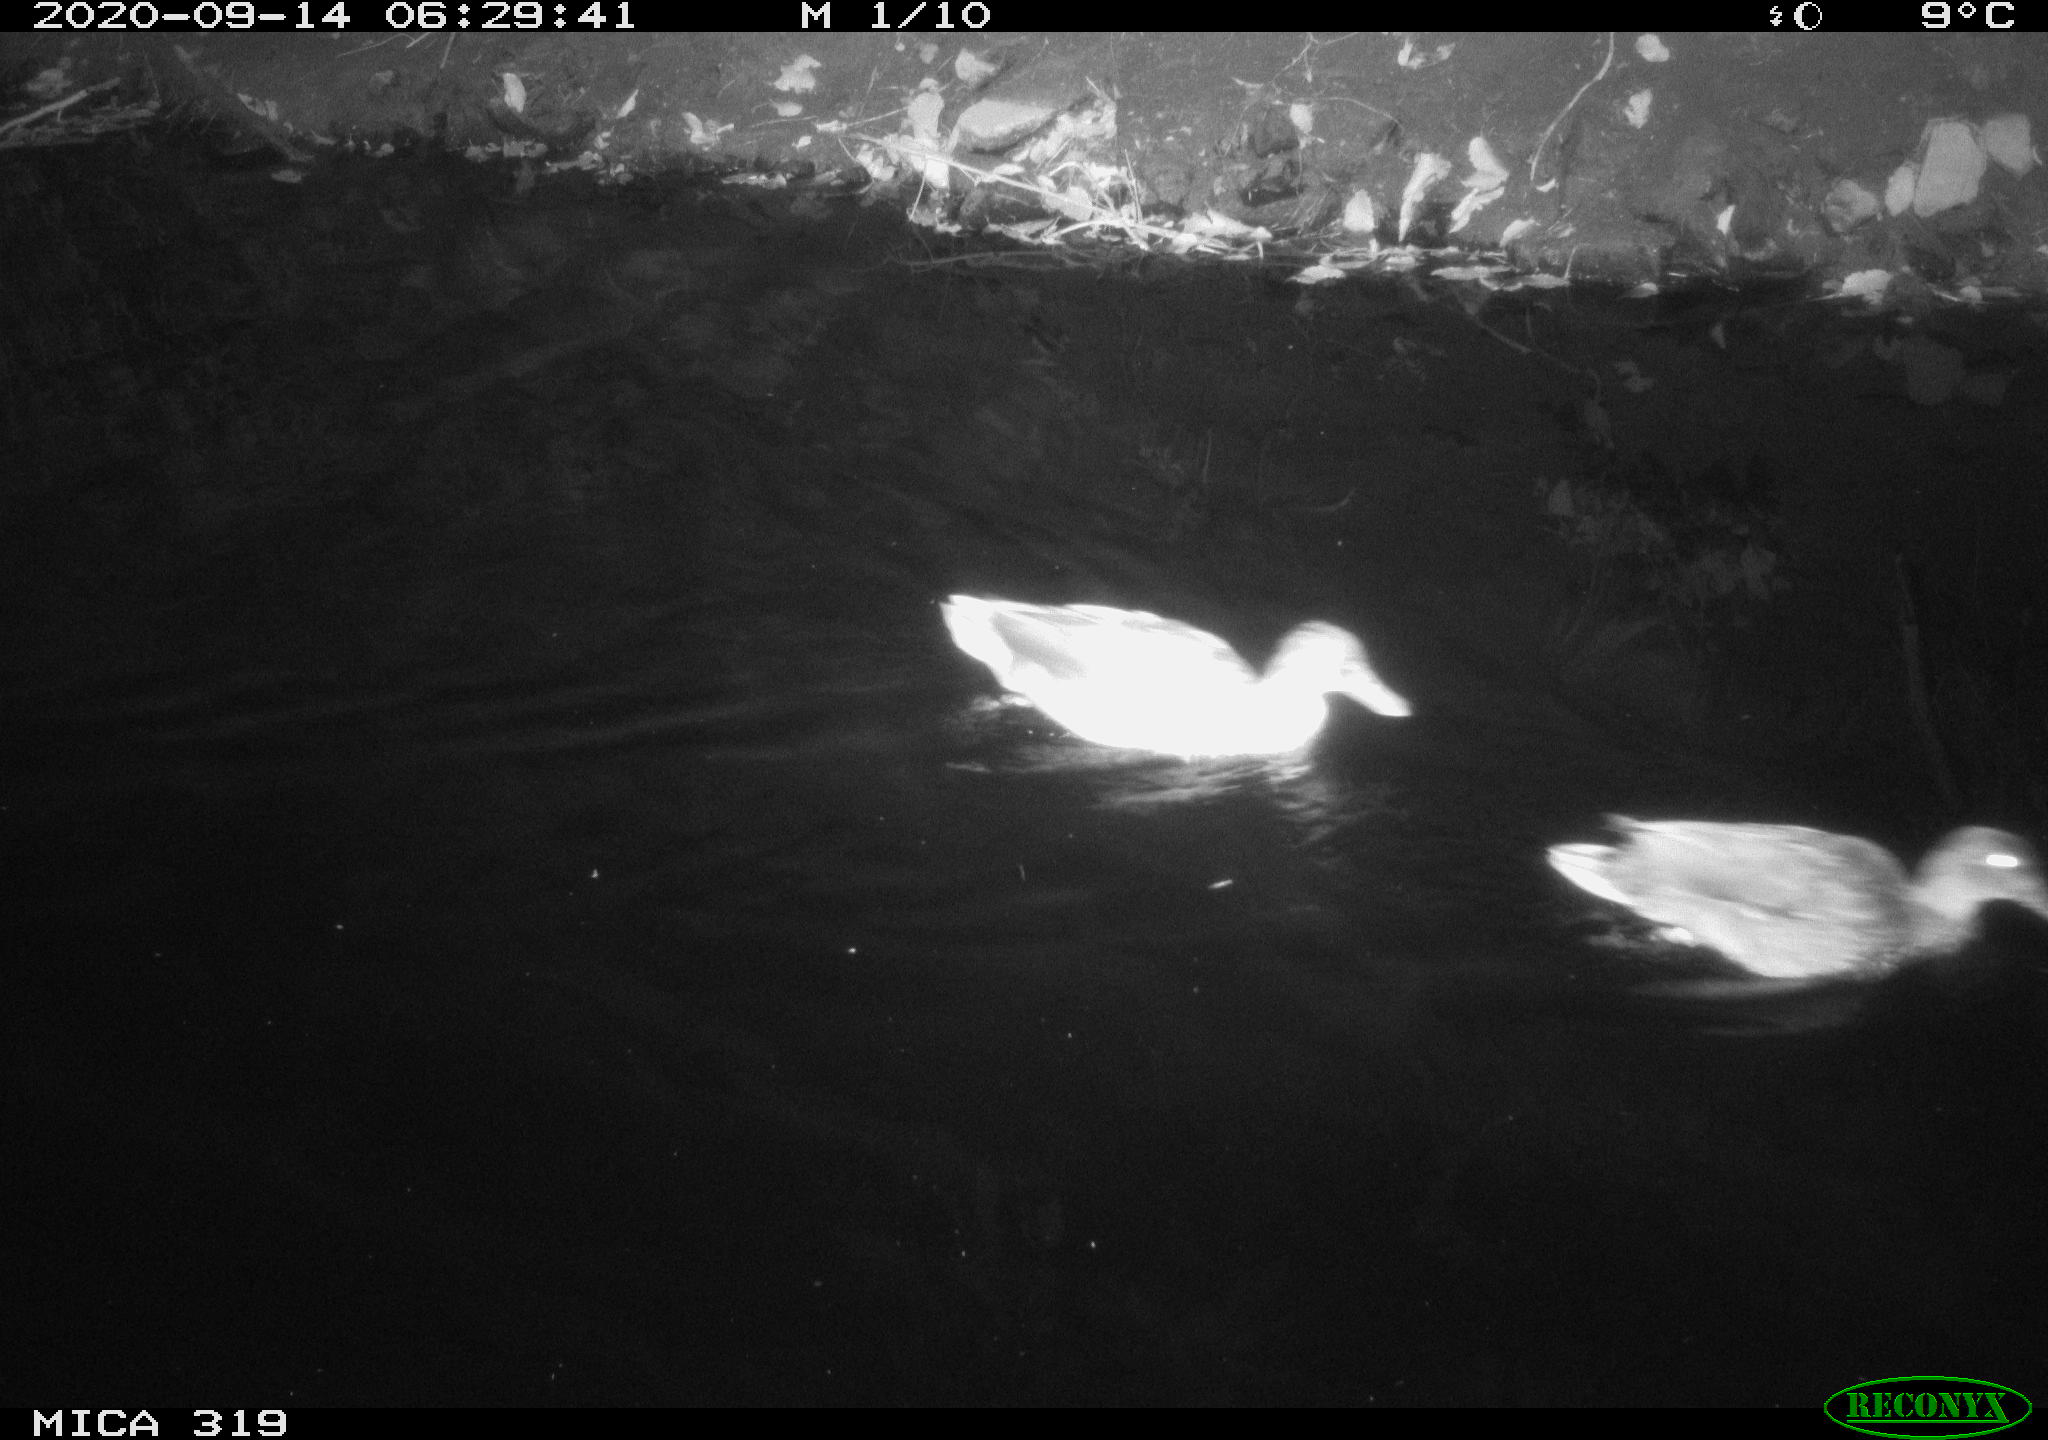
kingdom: Animalia
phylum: Chordata
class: Aves
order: Anseriformes
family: Anatidae
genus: Anas
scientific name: Anas platyrhynchos
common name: Mallard
